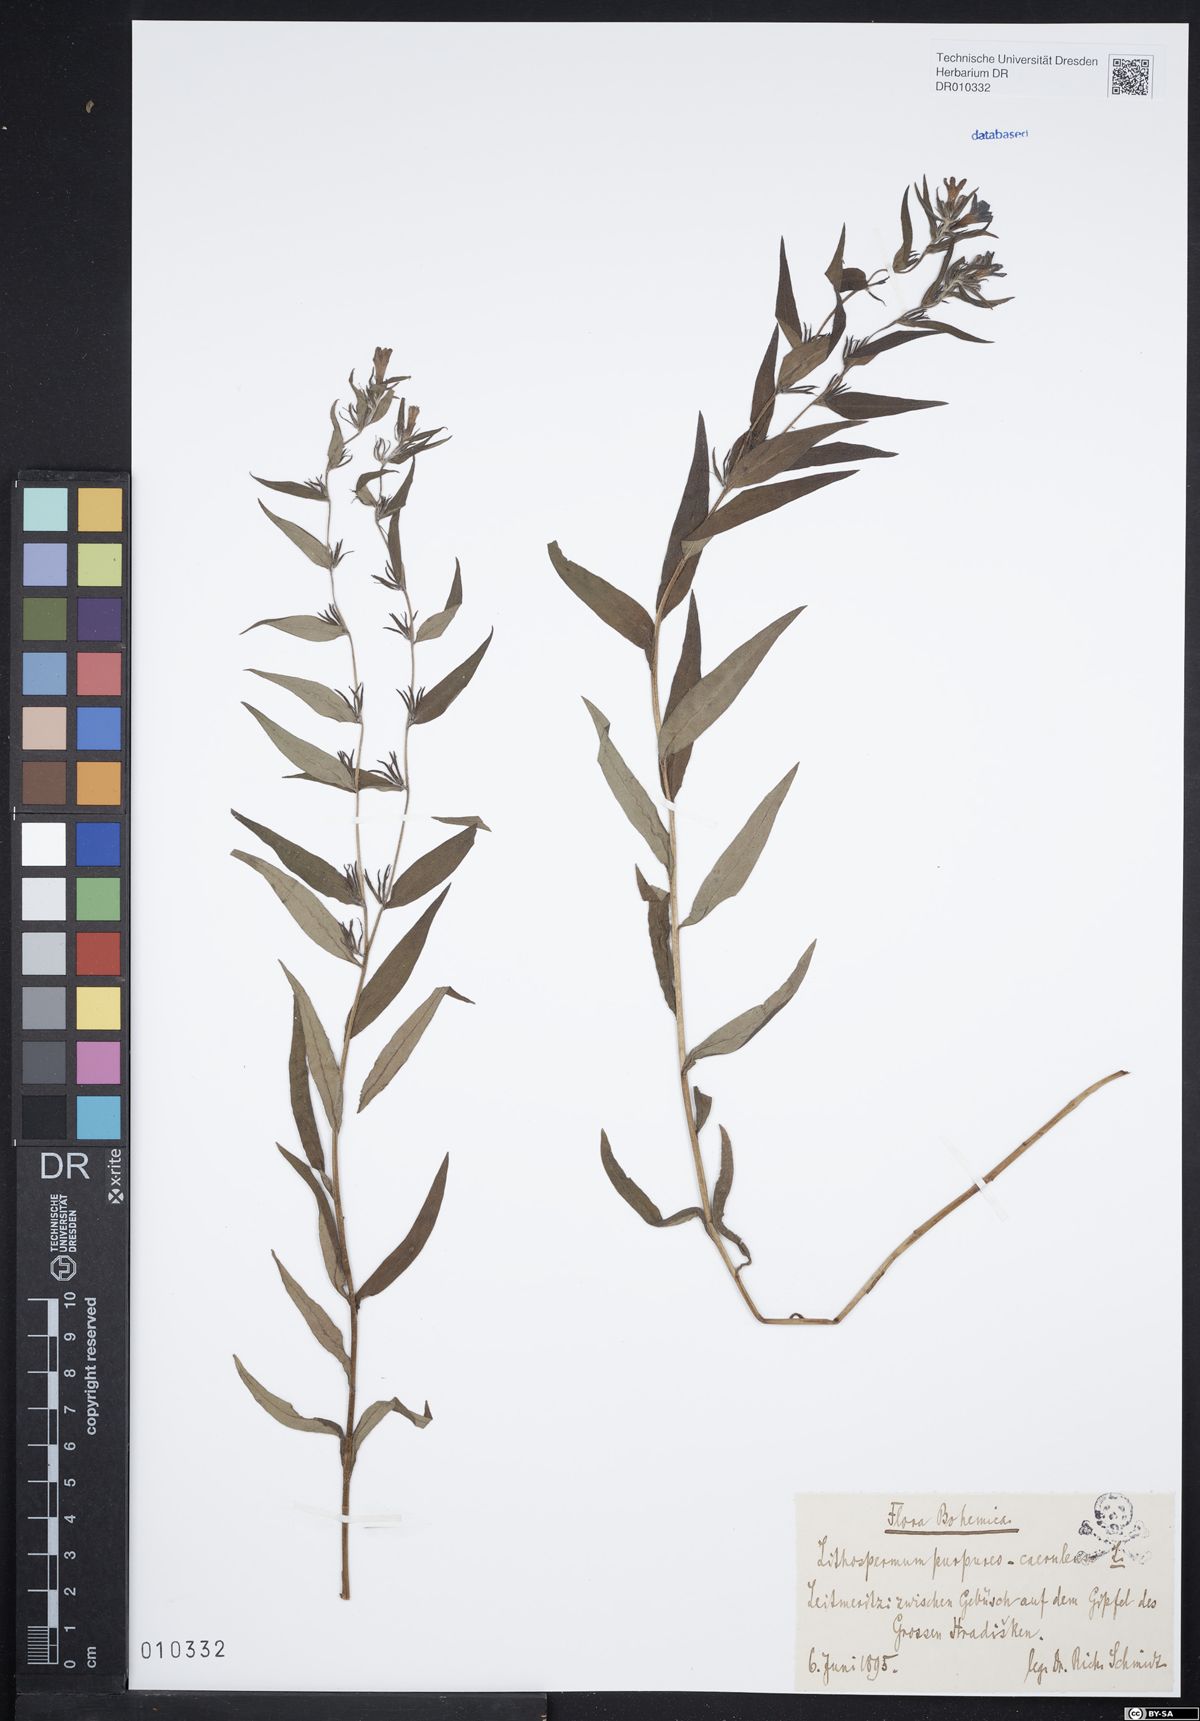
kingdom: Plantae
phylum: Tracheophyta
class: Magnoliopsida
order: Boraginales
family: Boraginaceae
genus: Aegonychon
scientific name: Aegonychon purpurocaeruleum
